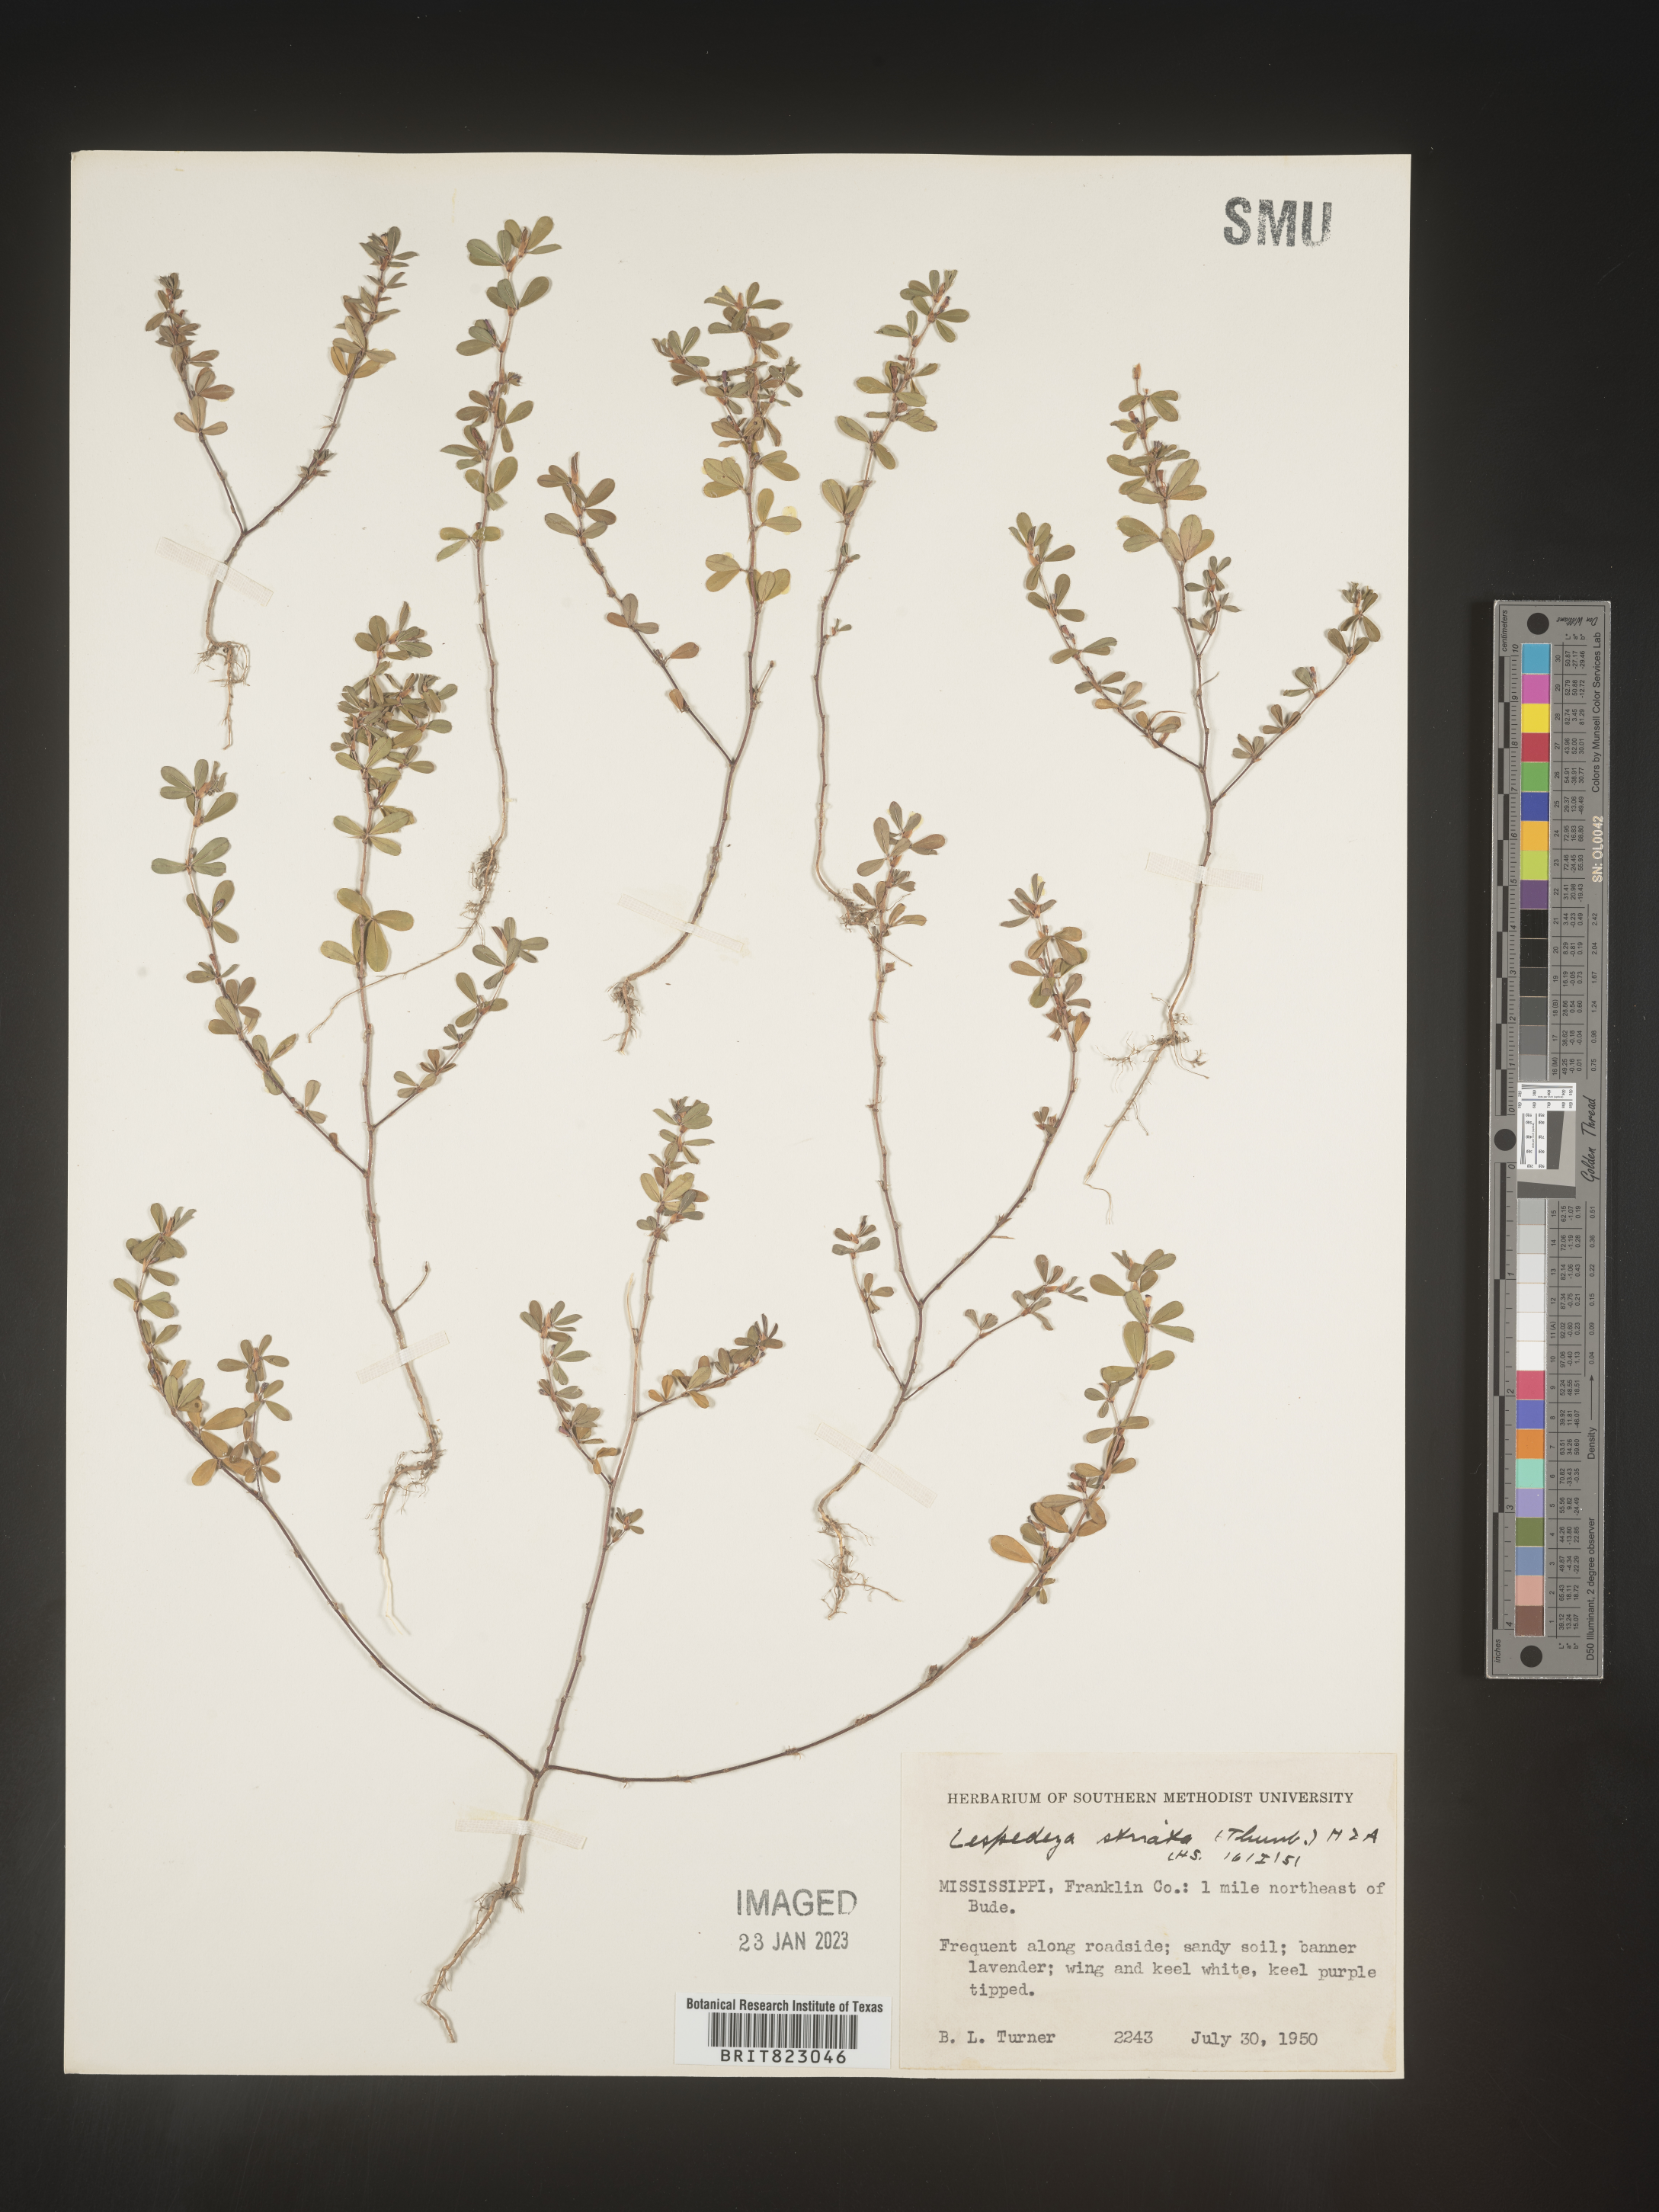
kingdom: Plantae
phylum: Tracheophyta
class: Magnoliopsida
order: Fabales
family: Fabaceae
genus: Kummerowia
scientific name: Kummerowia striata
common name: Japanese clover
